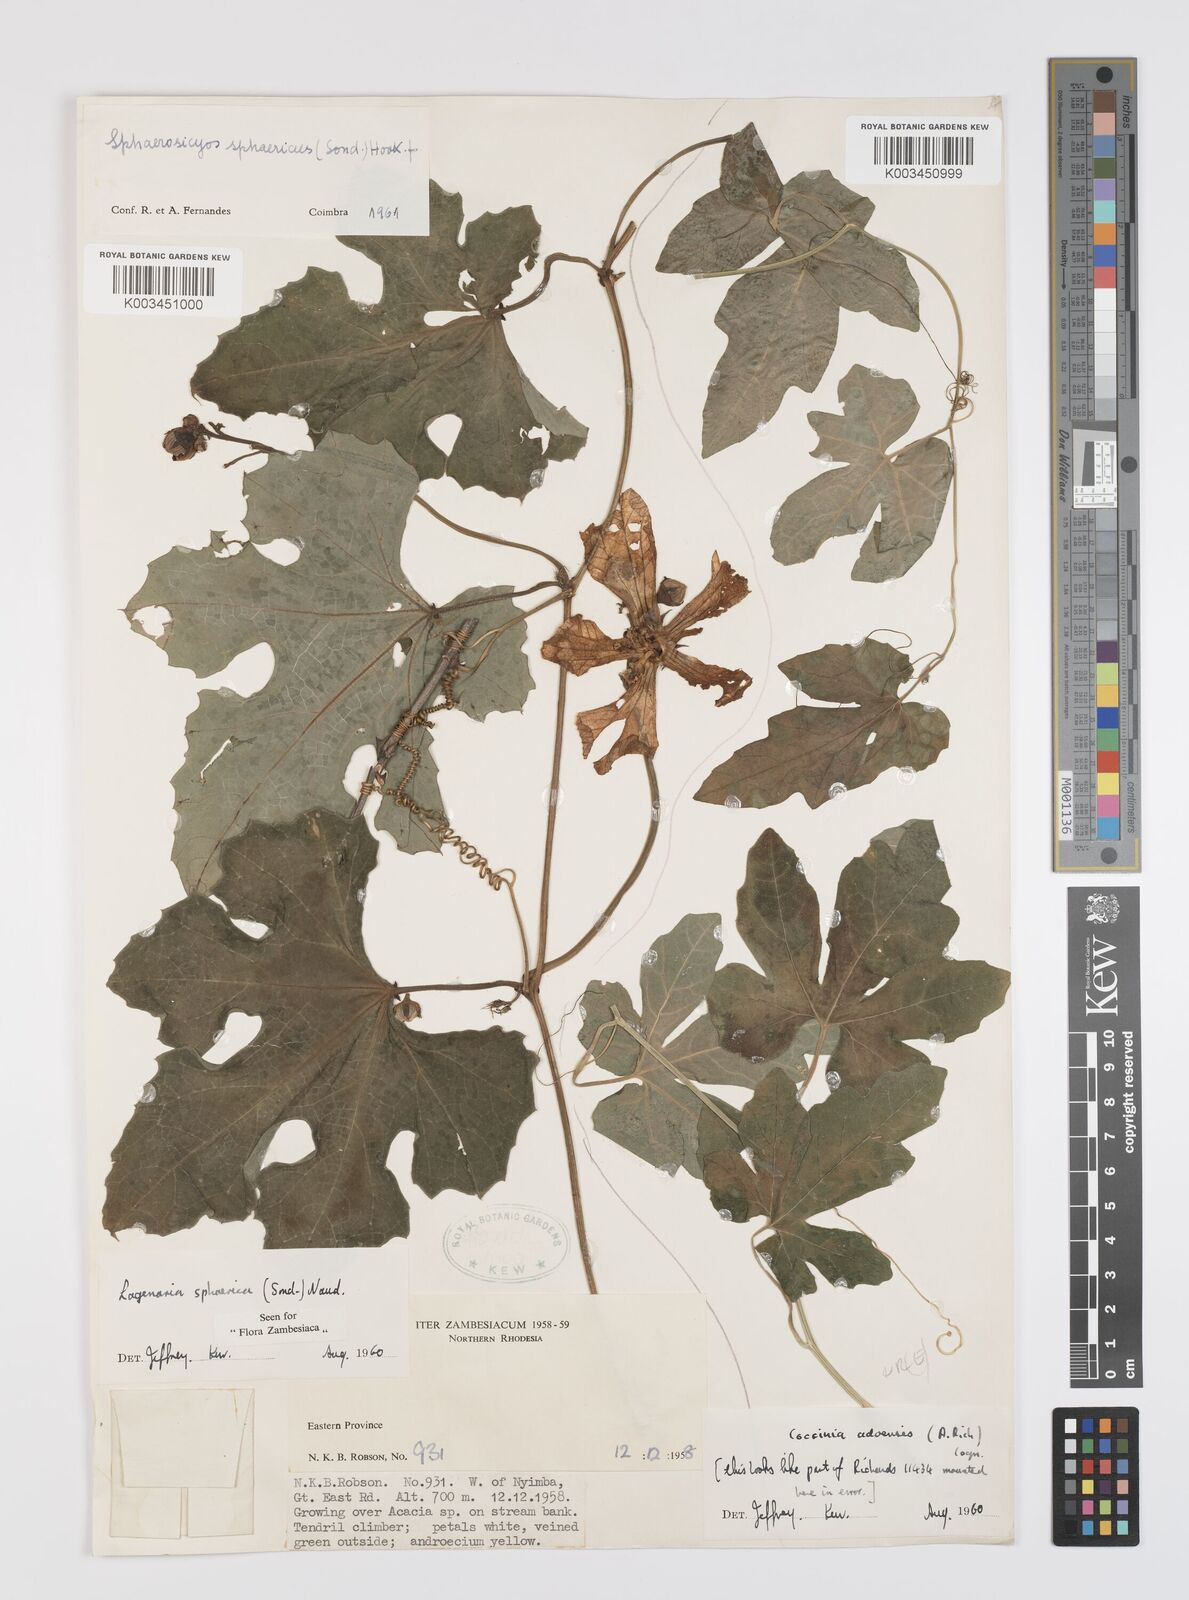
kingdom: Plantae
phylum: Tracheophyta
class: Magnoliopsida
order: Cucurbitales
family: Cucurbitaceae
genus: Lagenaria
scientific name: Lagenaria sphaerica
